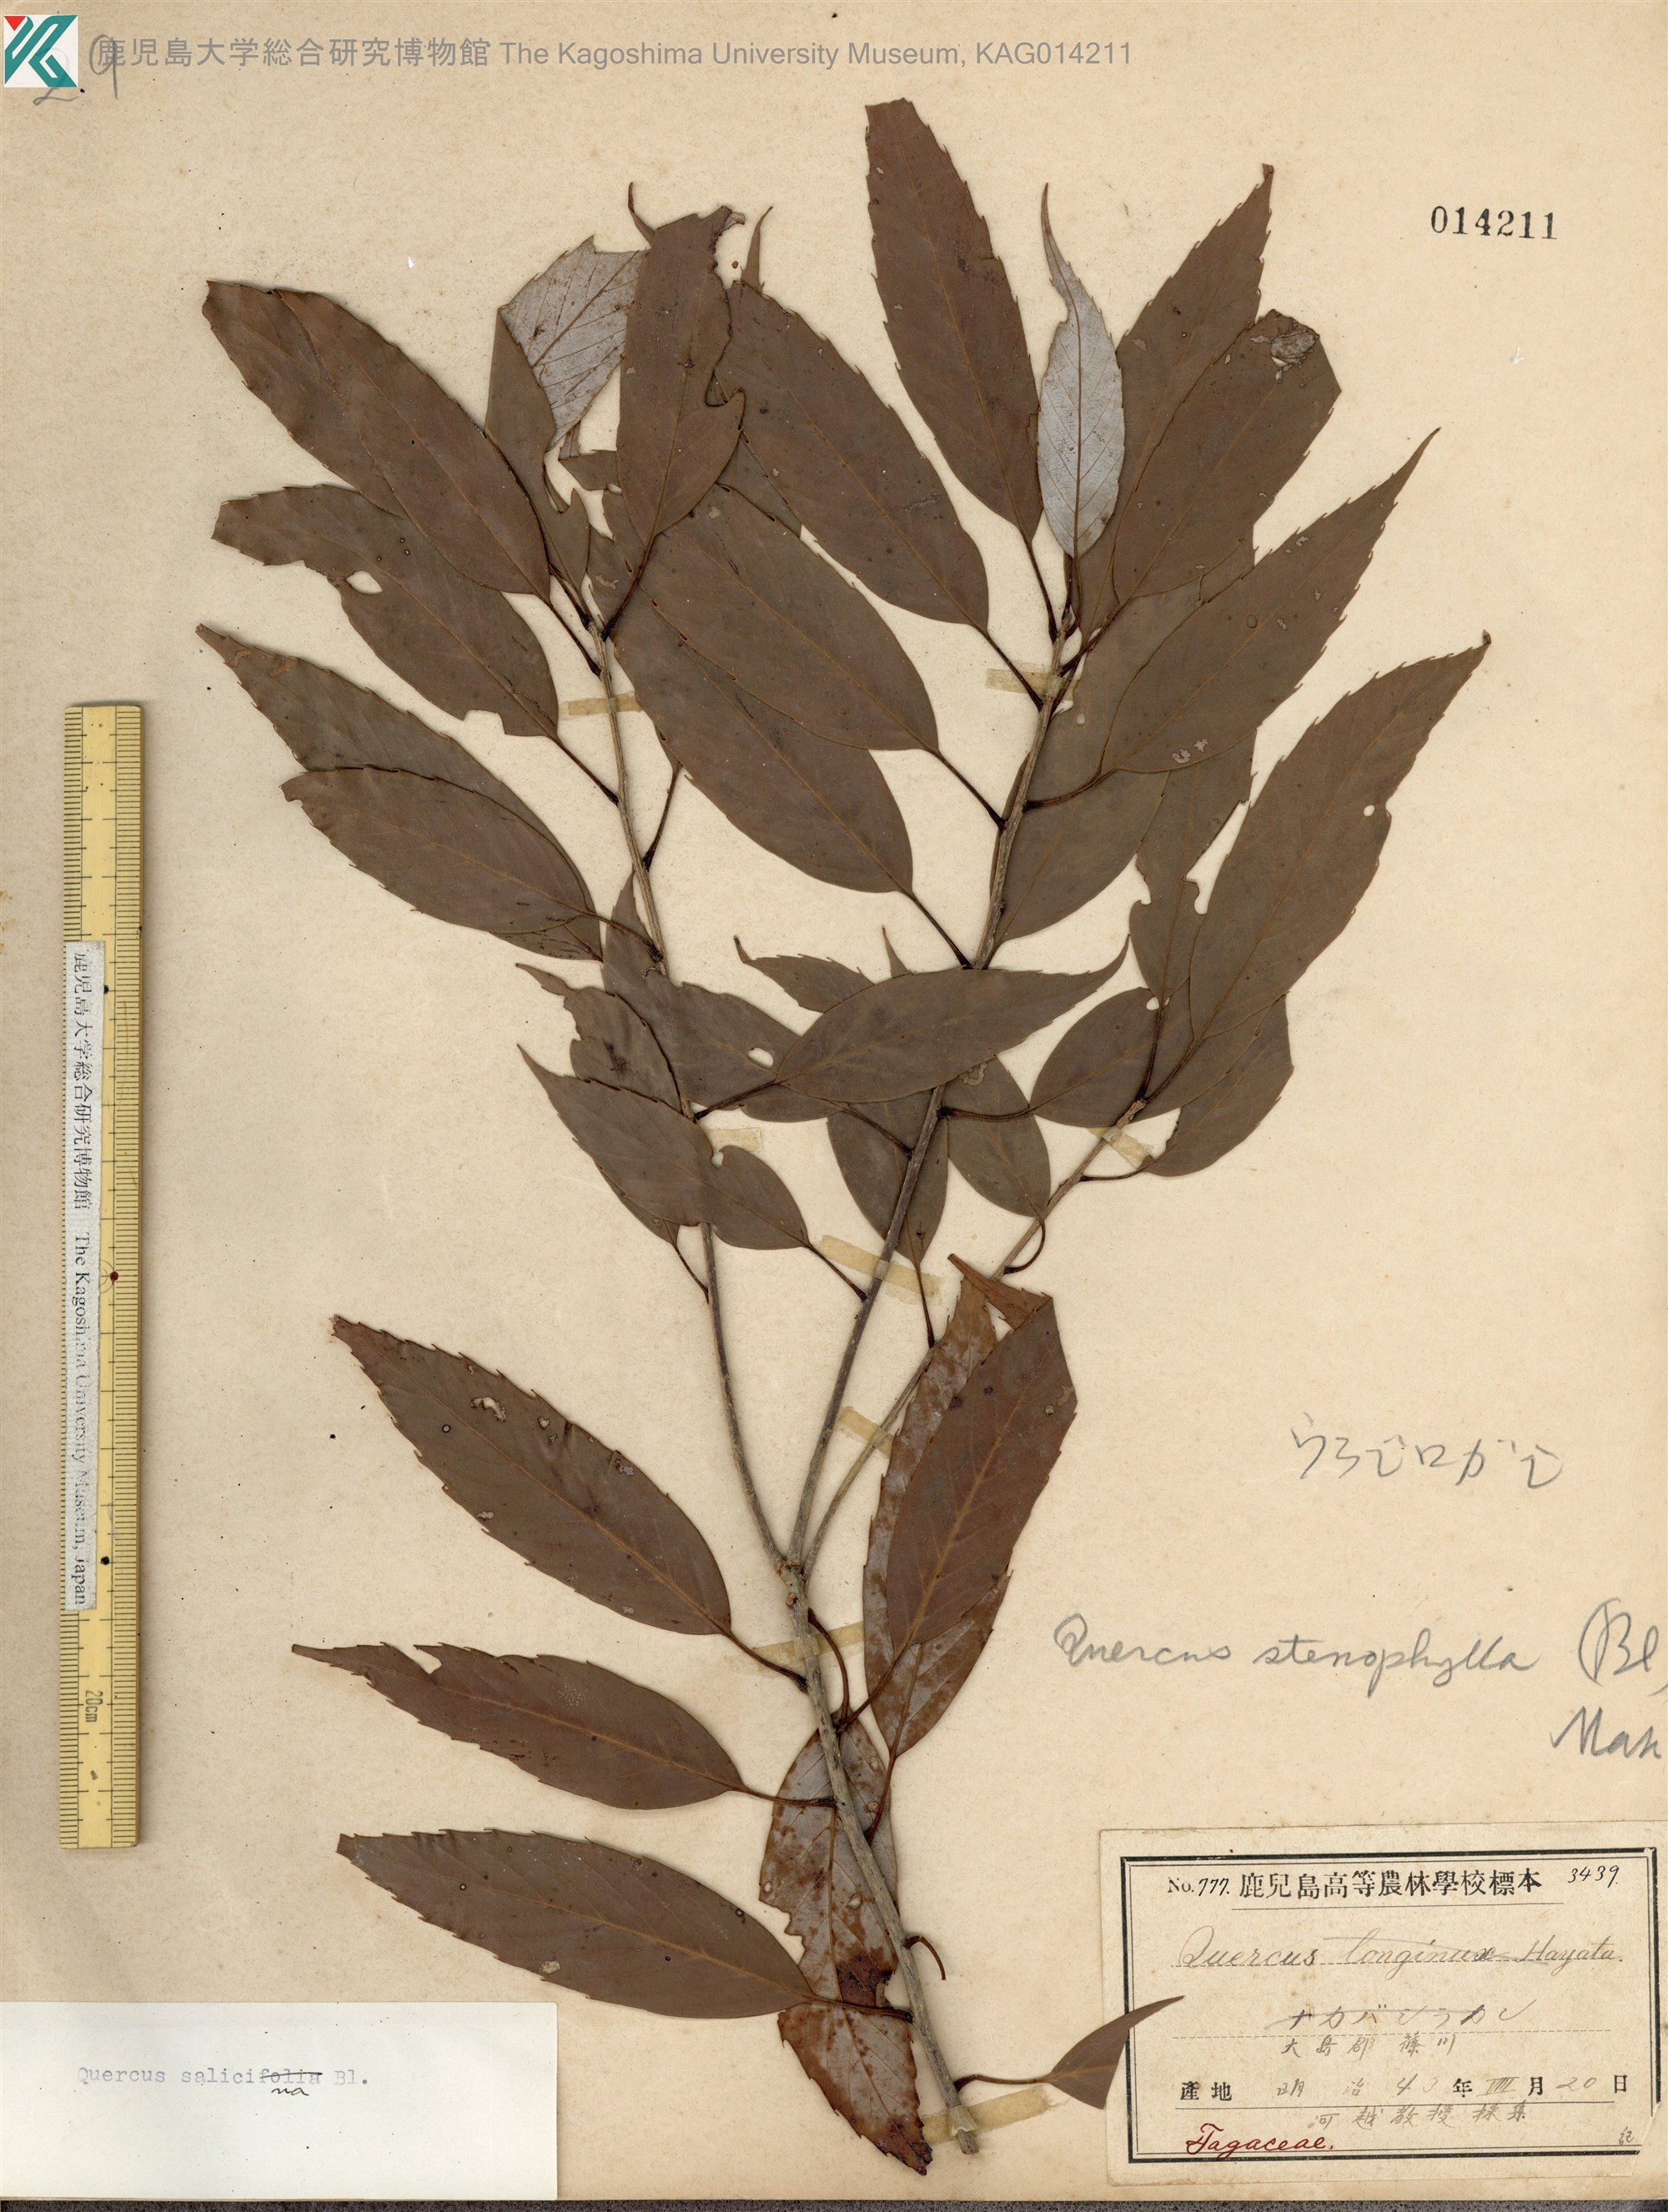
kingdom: Plantae
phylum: Tracheophyta
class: Magnoliopsida
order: Fagales
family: Fagaceae
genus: Quercus
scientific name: Quercus salicina
